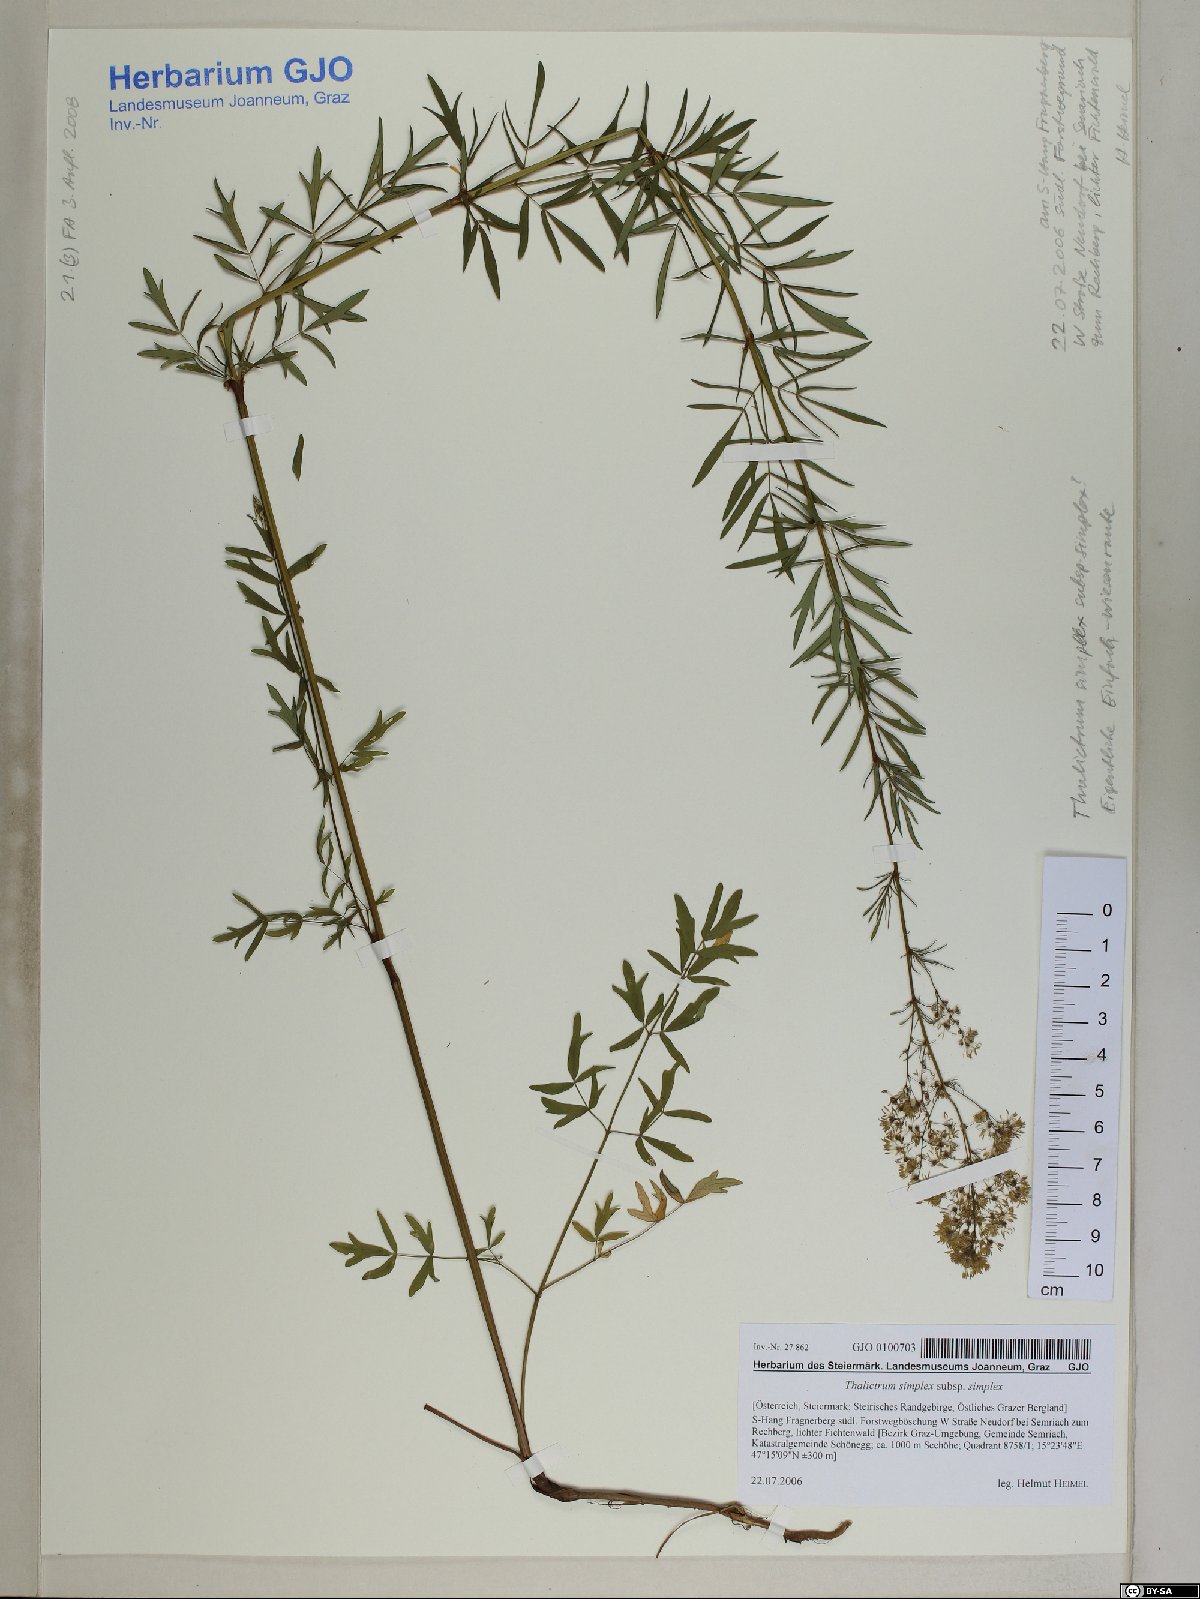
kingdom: Plantae
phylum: Tracheophyta
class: Magnoliopsida
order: Ranunculales
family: Ranunculaceae
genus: Thalictrum
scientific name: Thalictrum simplex
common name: Small meadow-rue
